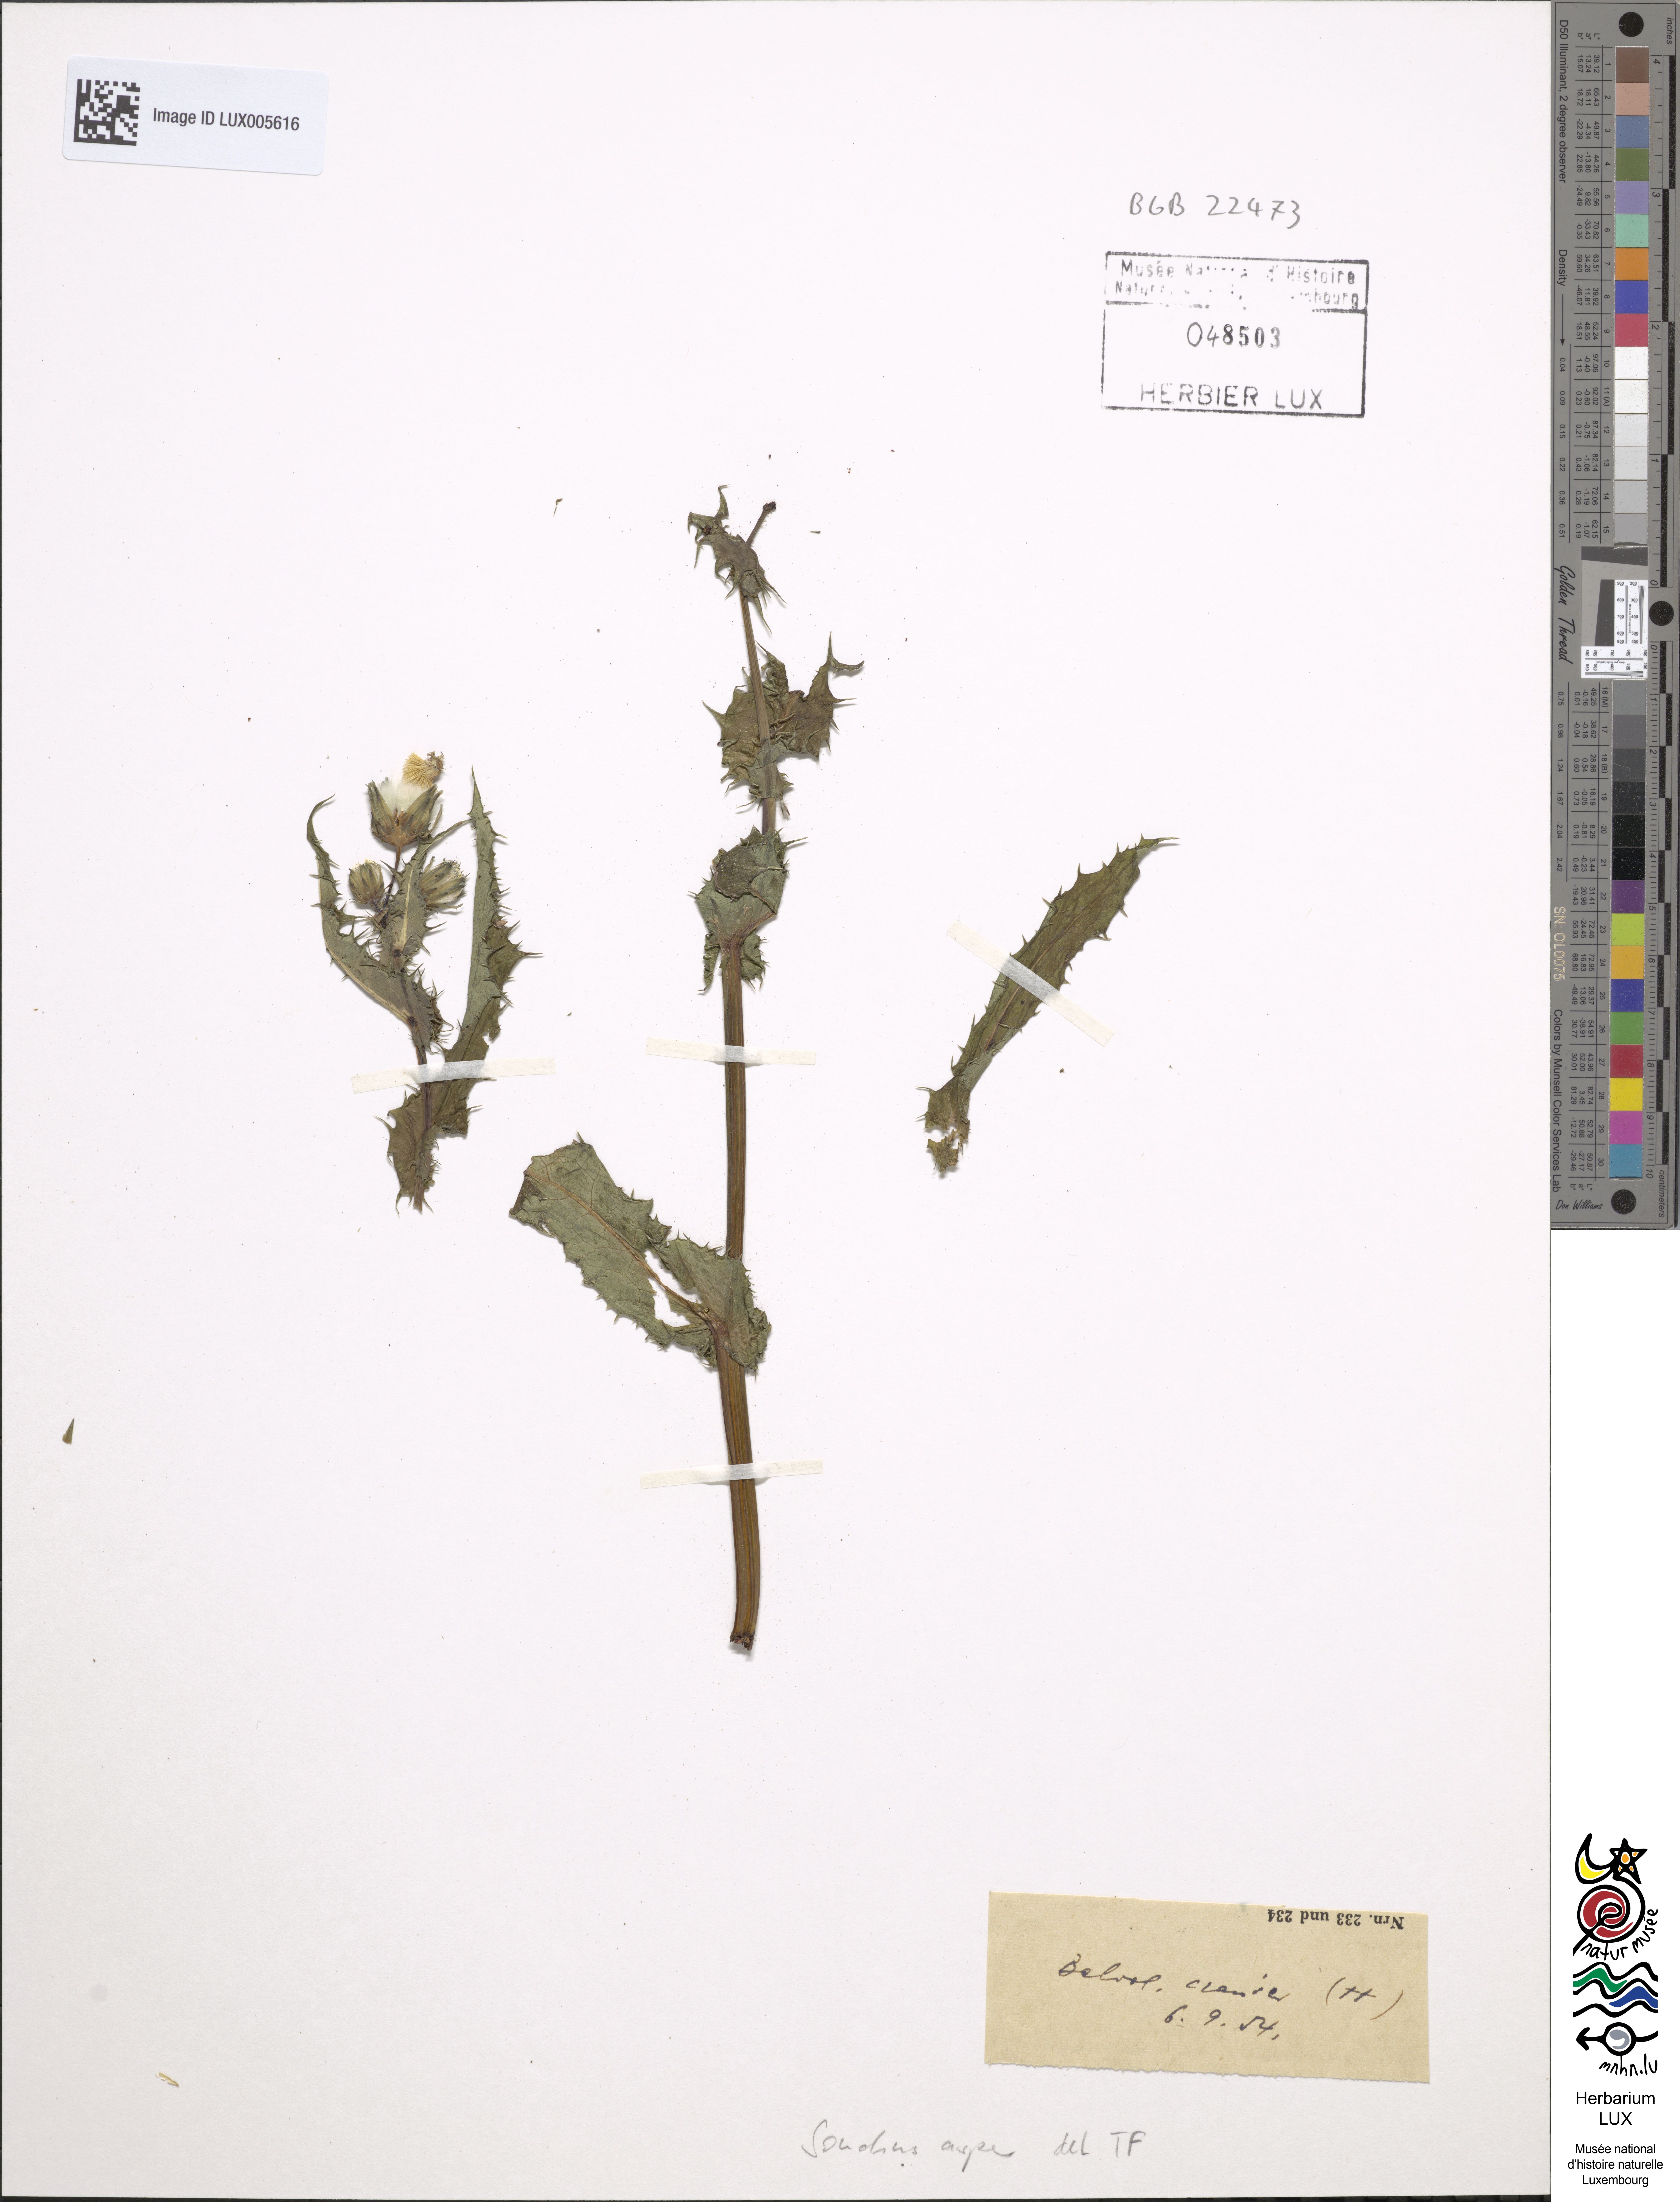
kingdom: Plantae
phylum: Tracheophyta
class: Magnoliopsida
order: Asterales
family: Asteraceae
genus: Sonchus
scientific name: Sonchus asper
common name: Prickly sow-thistle
